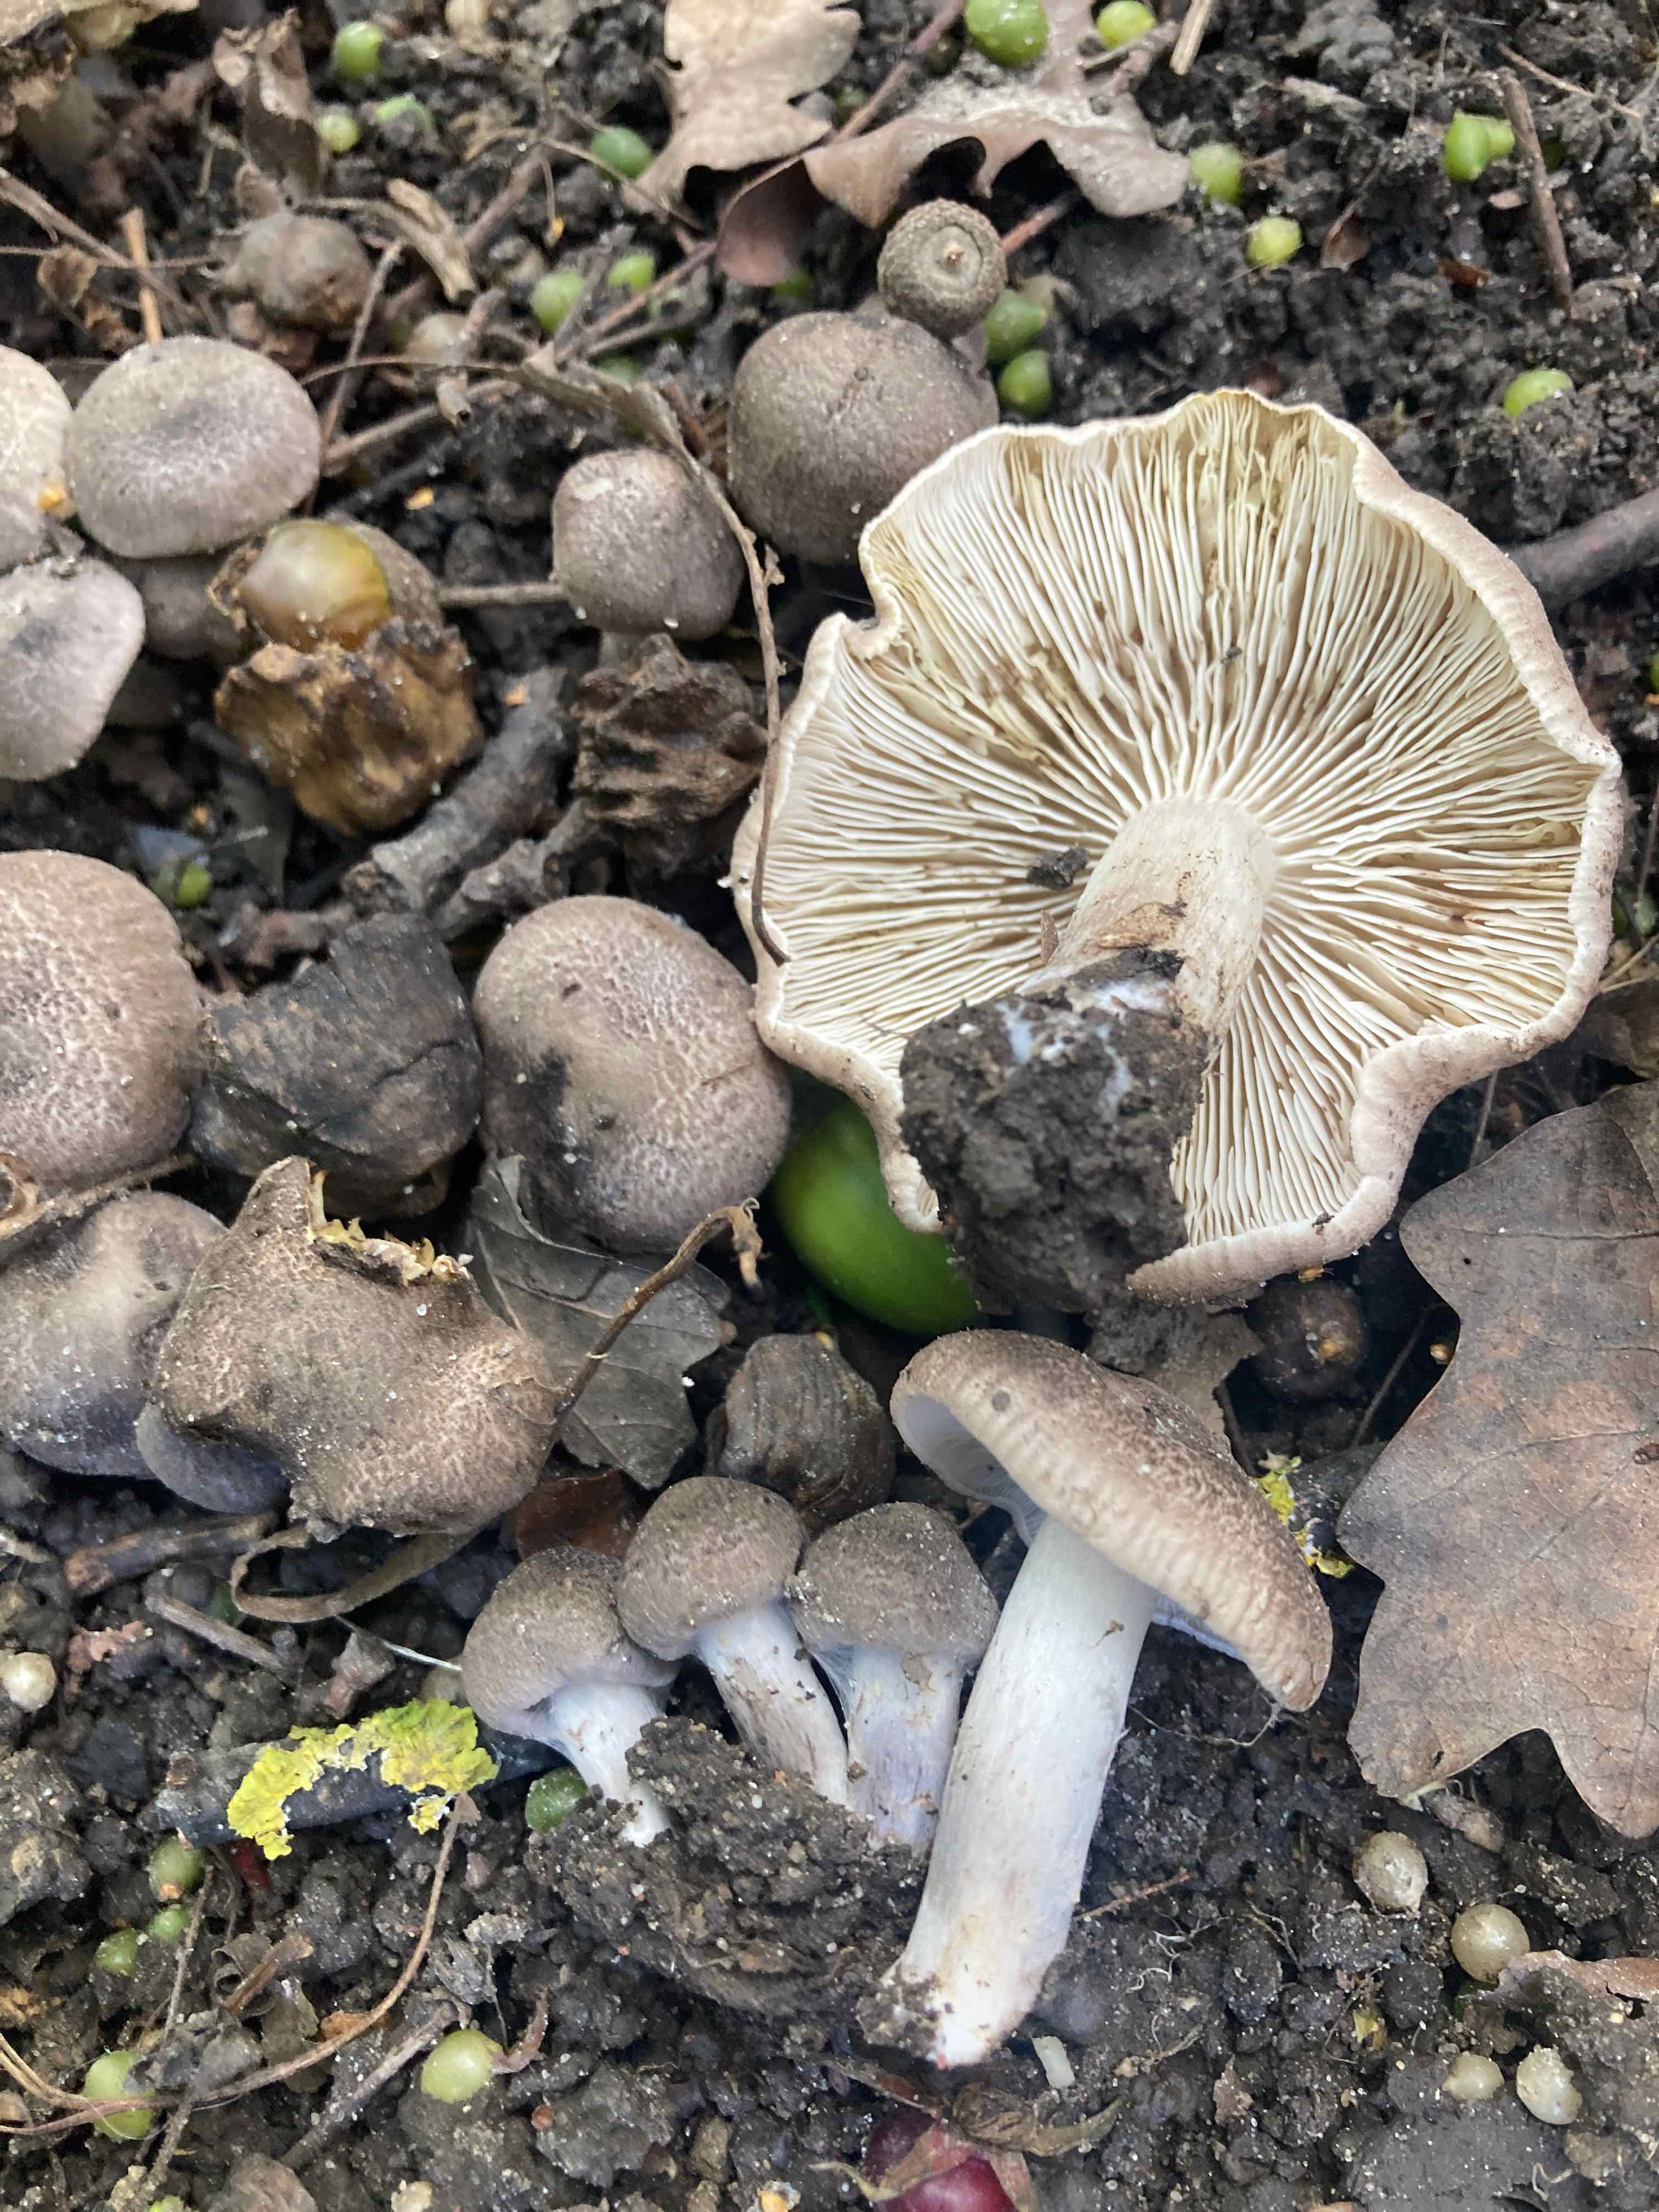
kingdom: Fungi
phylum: Basidiomycota
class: Agaricomycetes
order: Agaricales
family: Tricholomataceae
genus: Tricholoma
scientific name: Tricholoma argyraceum
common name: slør-ridderhat
